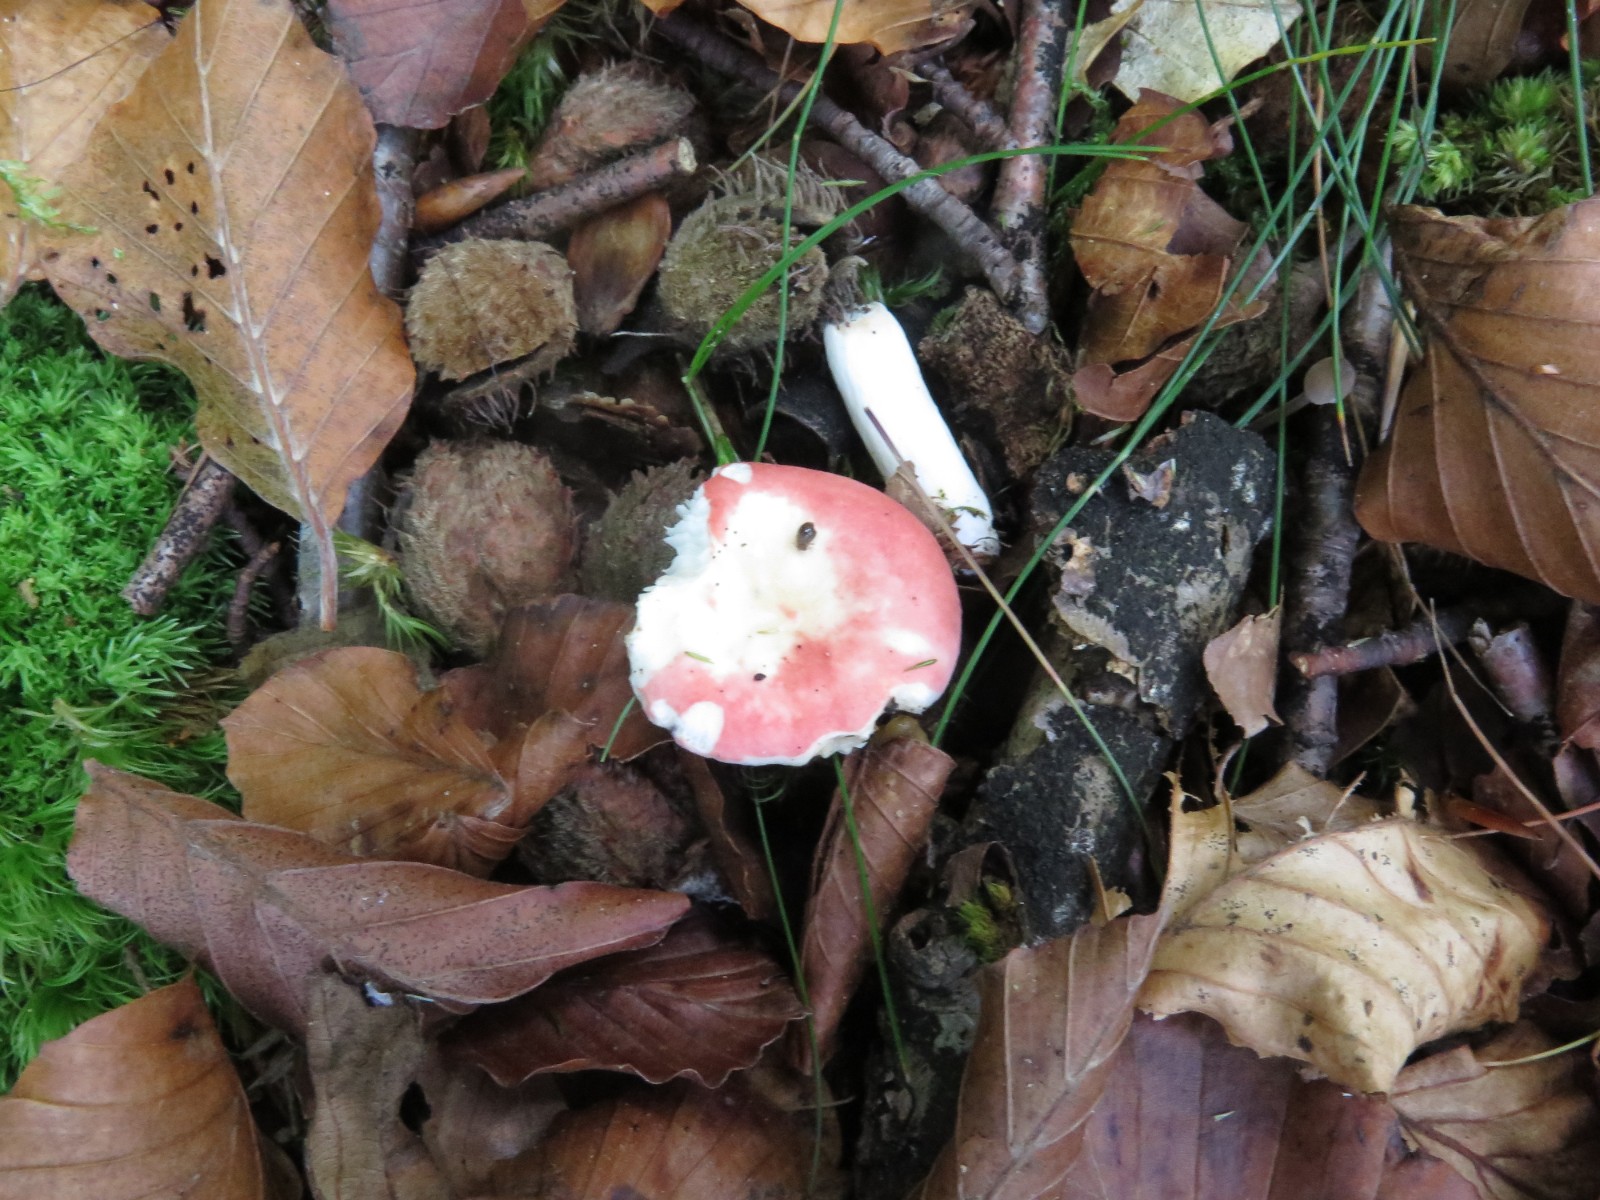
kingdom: Fungi
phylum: Basidiomycota
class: Agaricomycetes
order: Russulales
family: Russulaceae
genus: Russula
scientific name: Russula nobilis
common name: lille gift-skørhat
